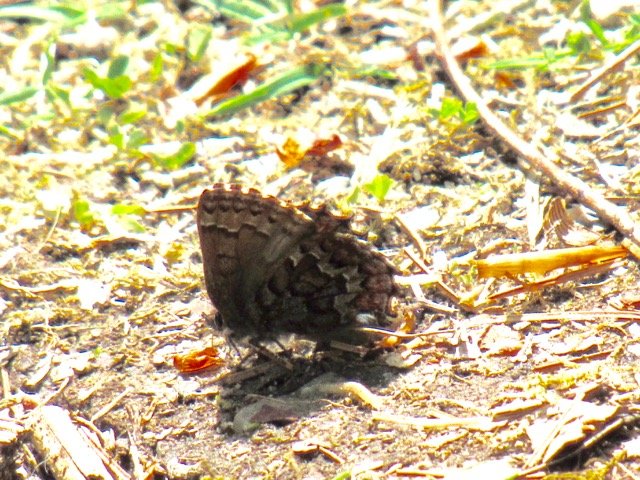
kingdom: Animalia
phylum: Arthropoda
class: Insecta
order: Lepidoptera
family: Lycaenidae
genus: Incisalia
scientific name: Incisalia niphon
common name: Eastern Pine Elfin
